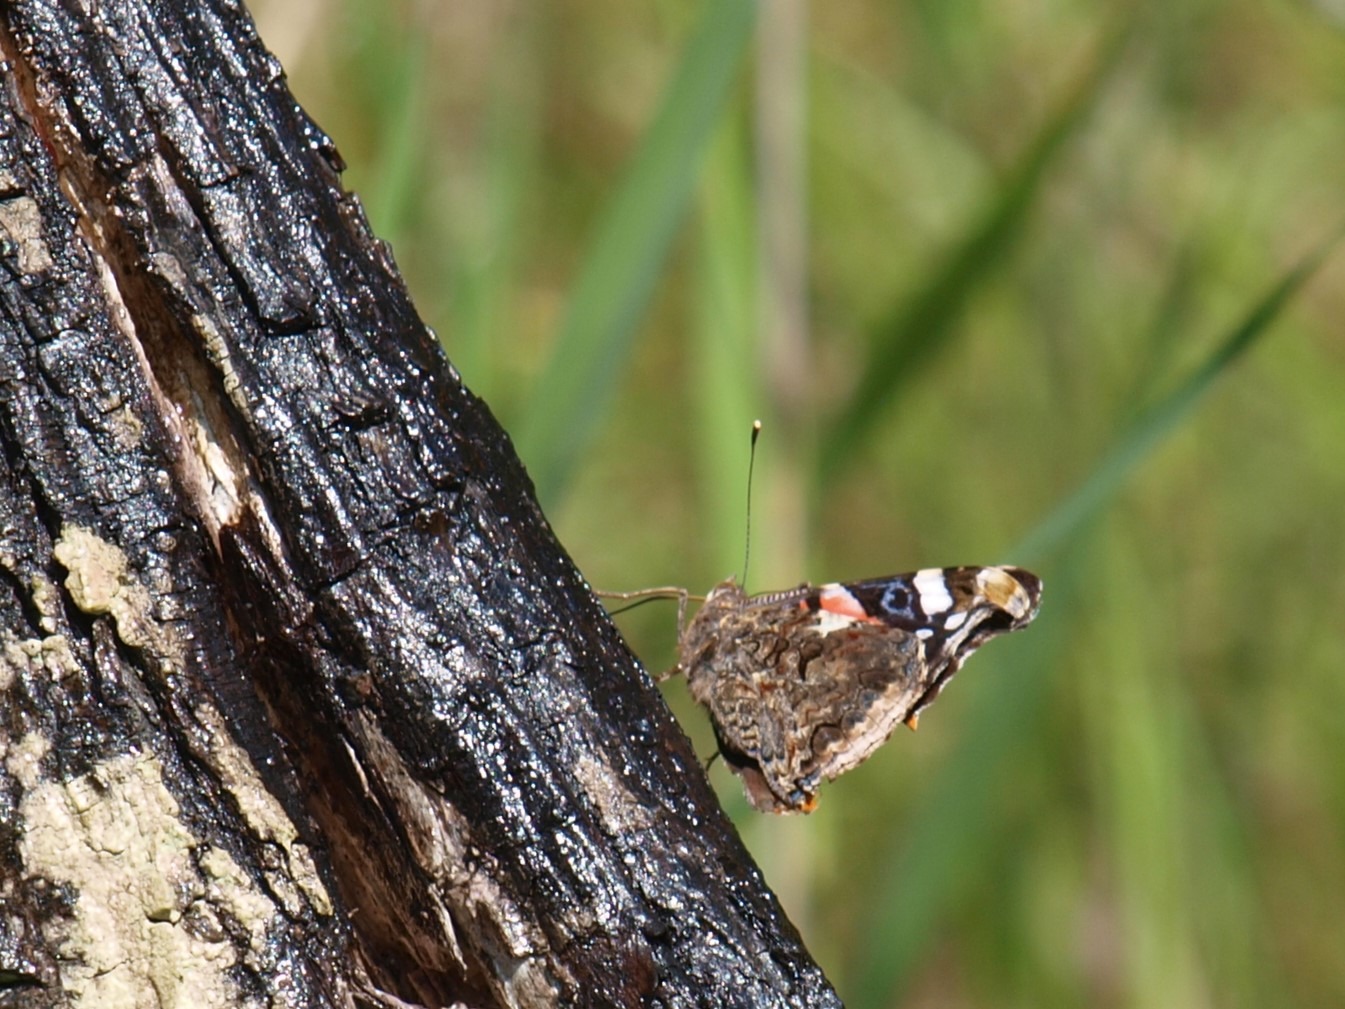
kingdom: Animalia
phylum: Arthropoda
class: Insecta
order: Lepidoptera
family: Nymphalidae
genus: Vanessa
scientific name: Vanessa atalanta
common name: Admiral
